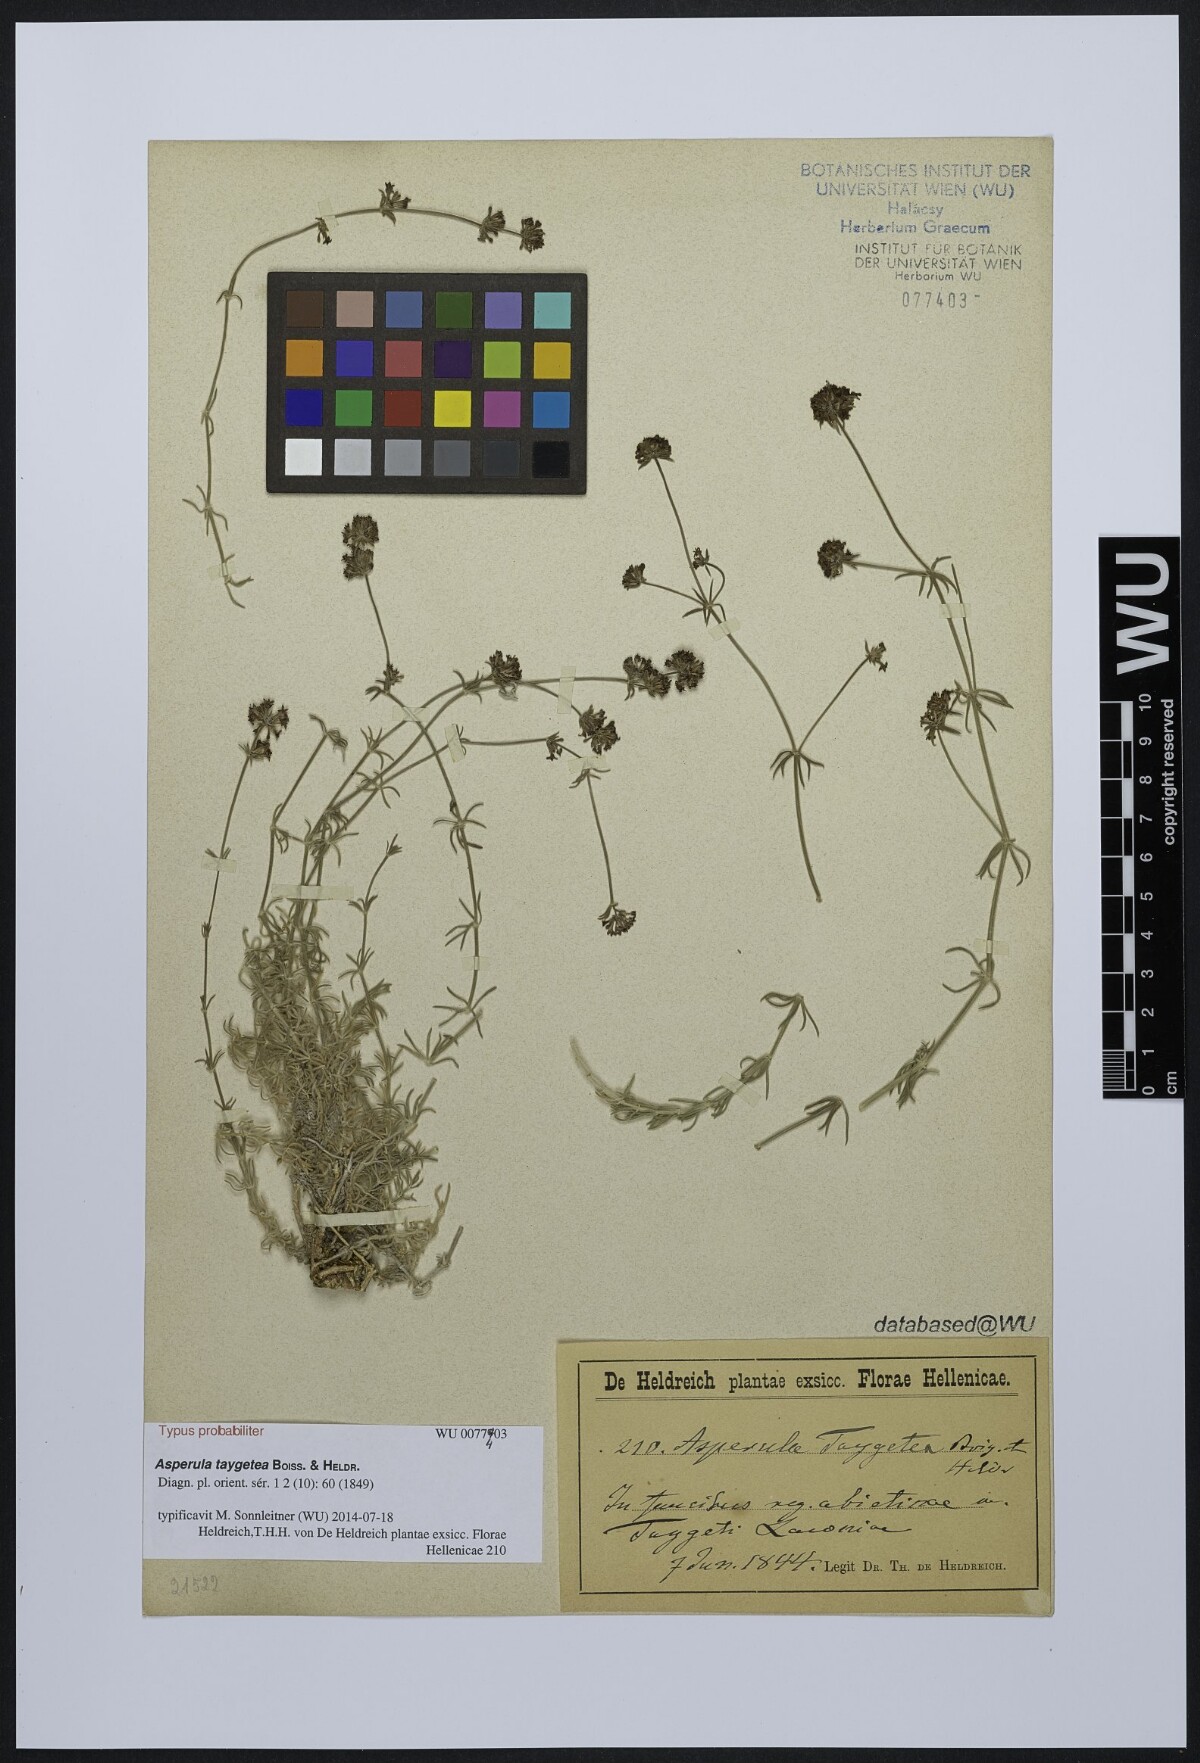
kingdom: Plantae
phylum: Tracheophyta
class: Magnoliopsida
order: Gentianales
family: Rubiaceae
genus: Hexaphylla
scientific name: Hexaphylla taygetea
